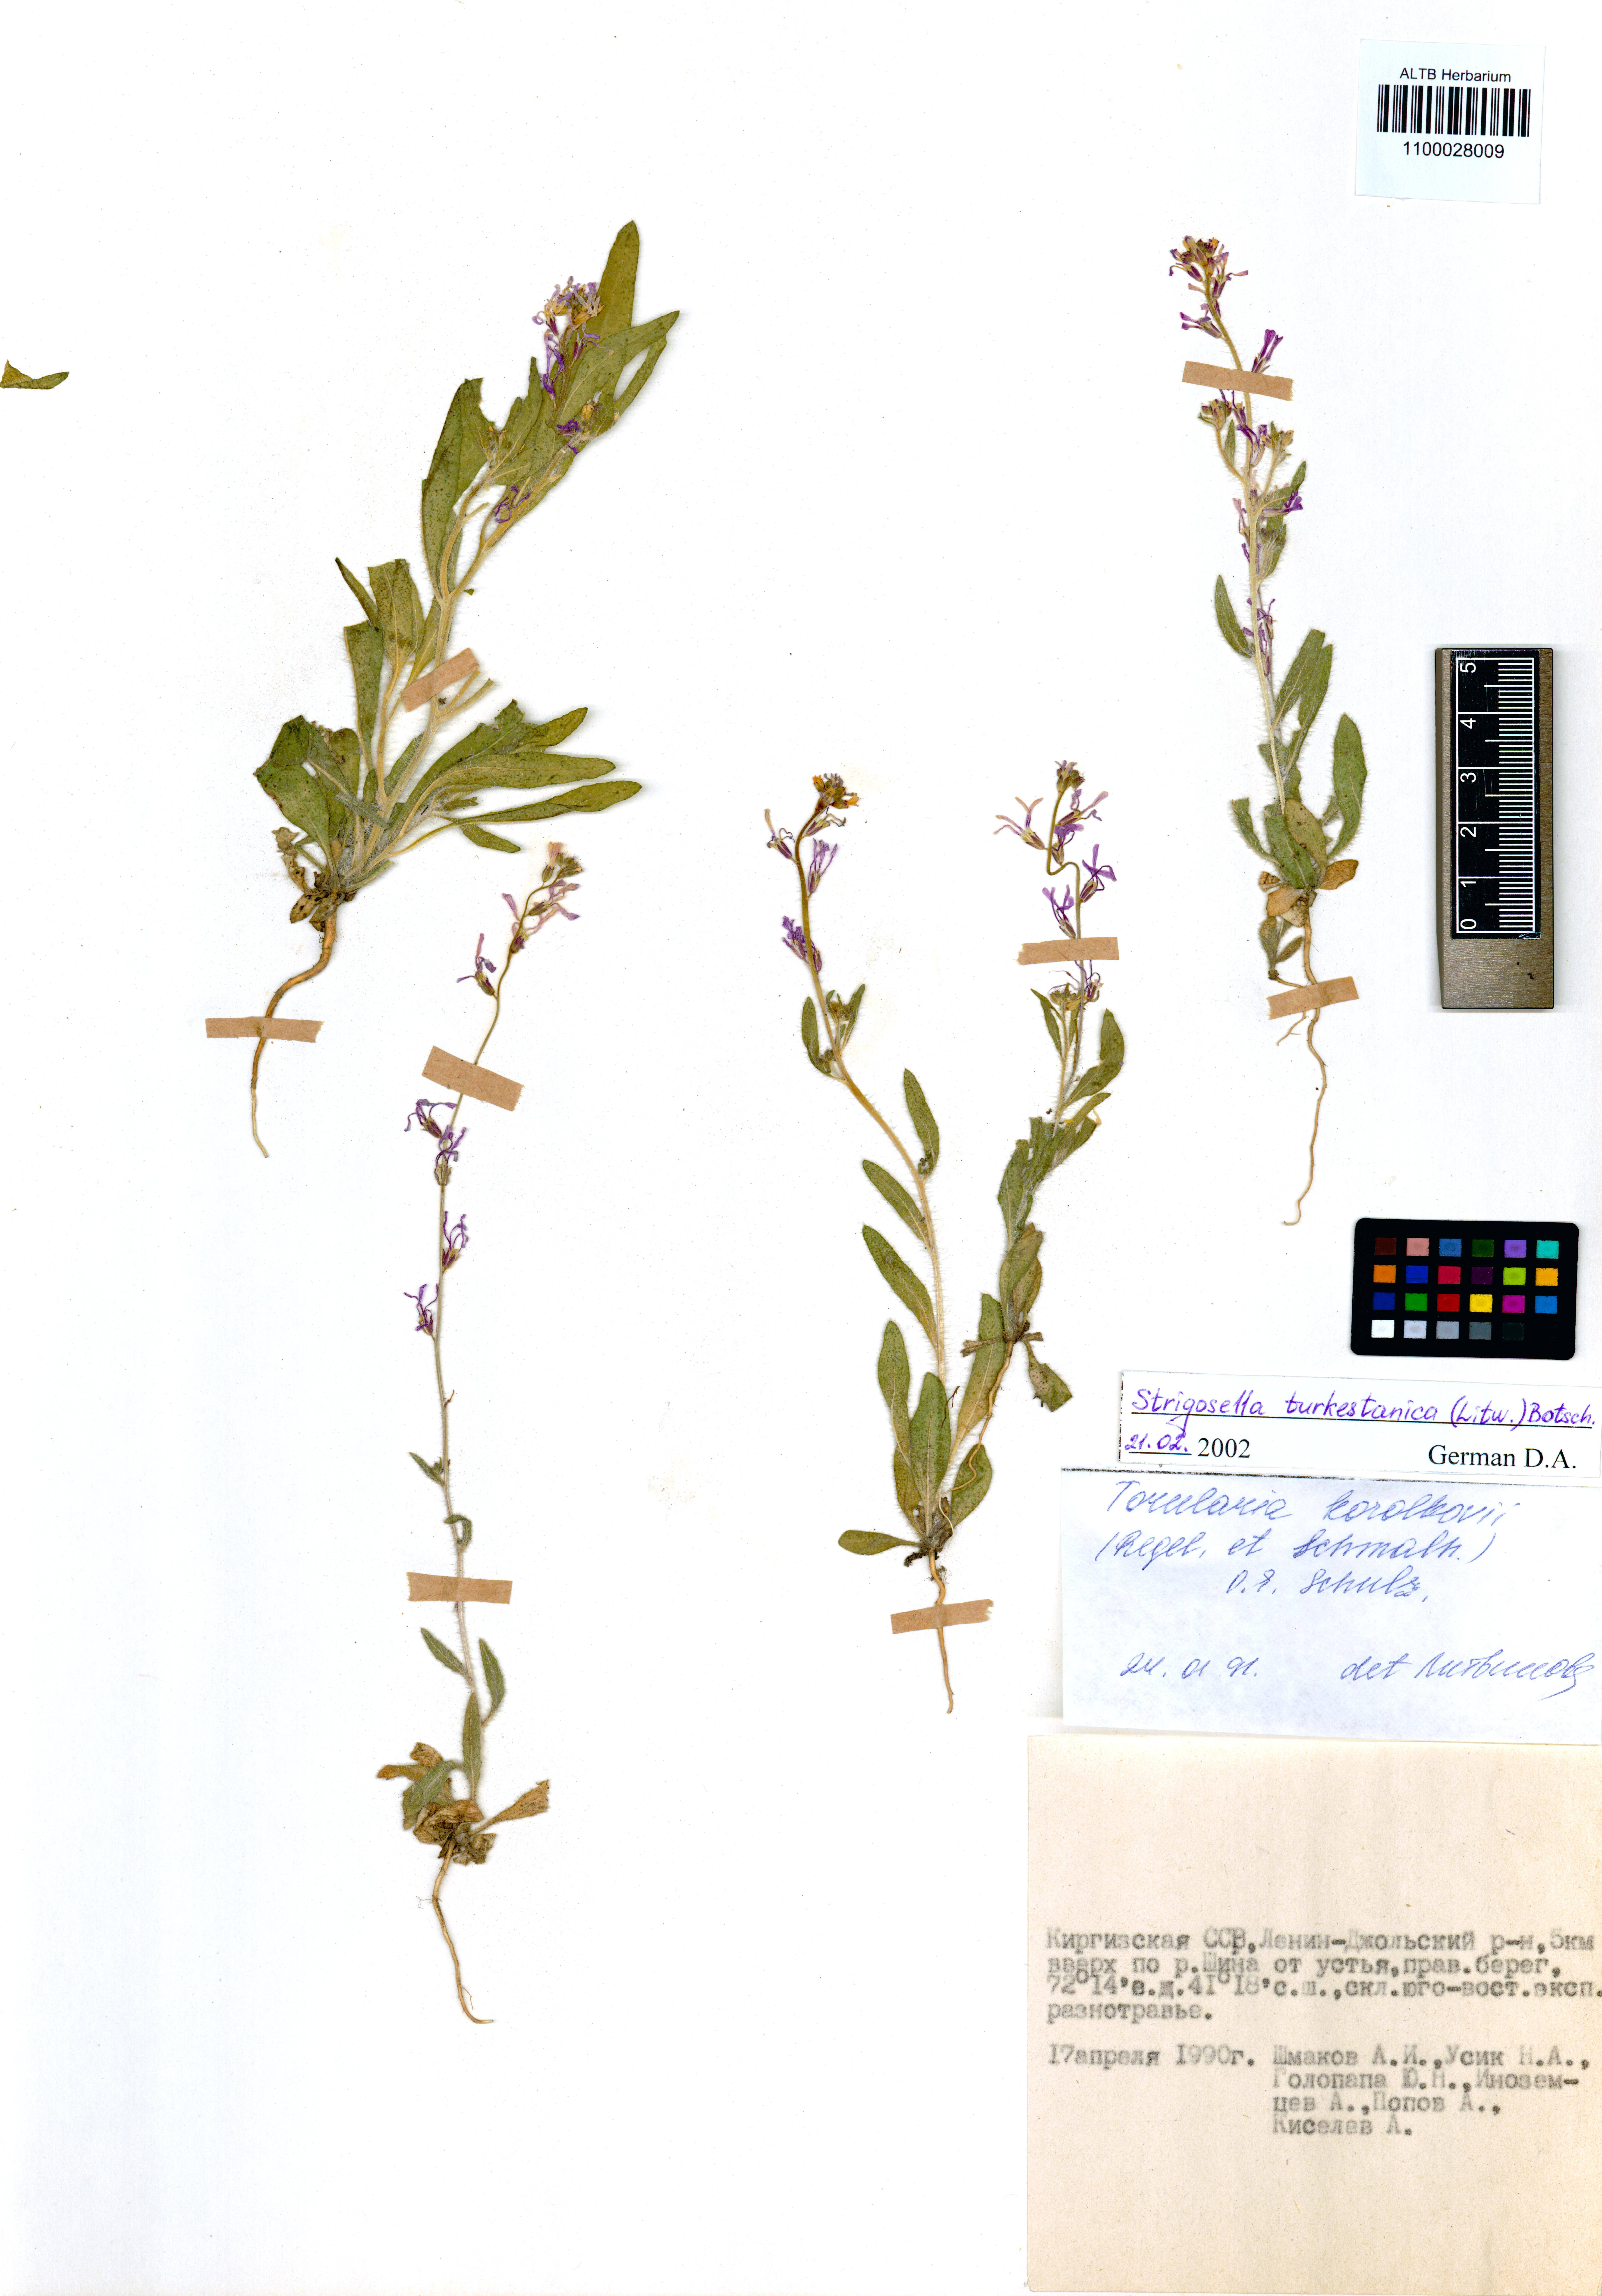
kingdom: Plantae
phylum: Tracheophyta
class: Magnoliopsida
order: Brassicales
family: Brassicaceae
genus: Strigosella
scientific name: Strigosella turkestanica
